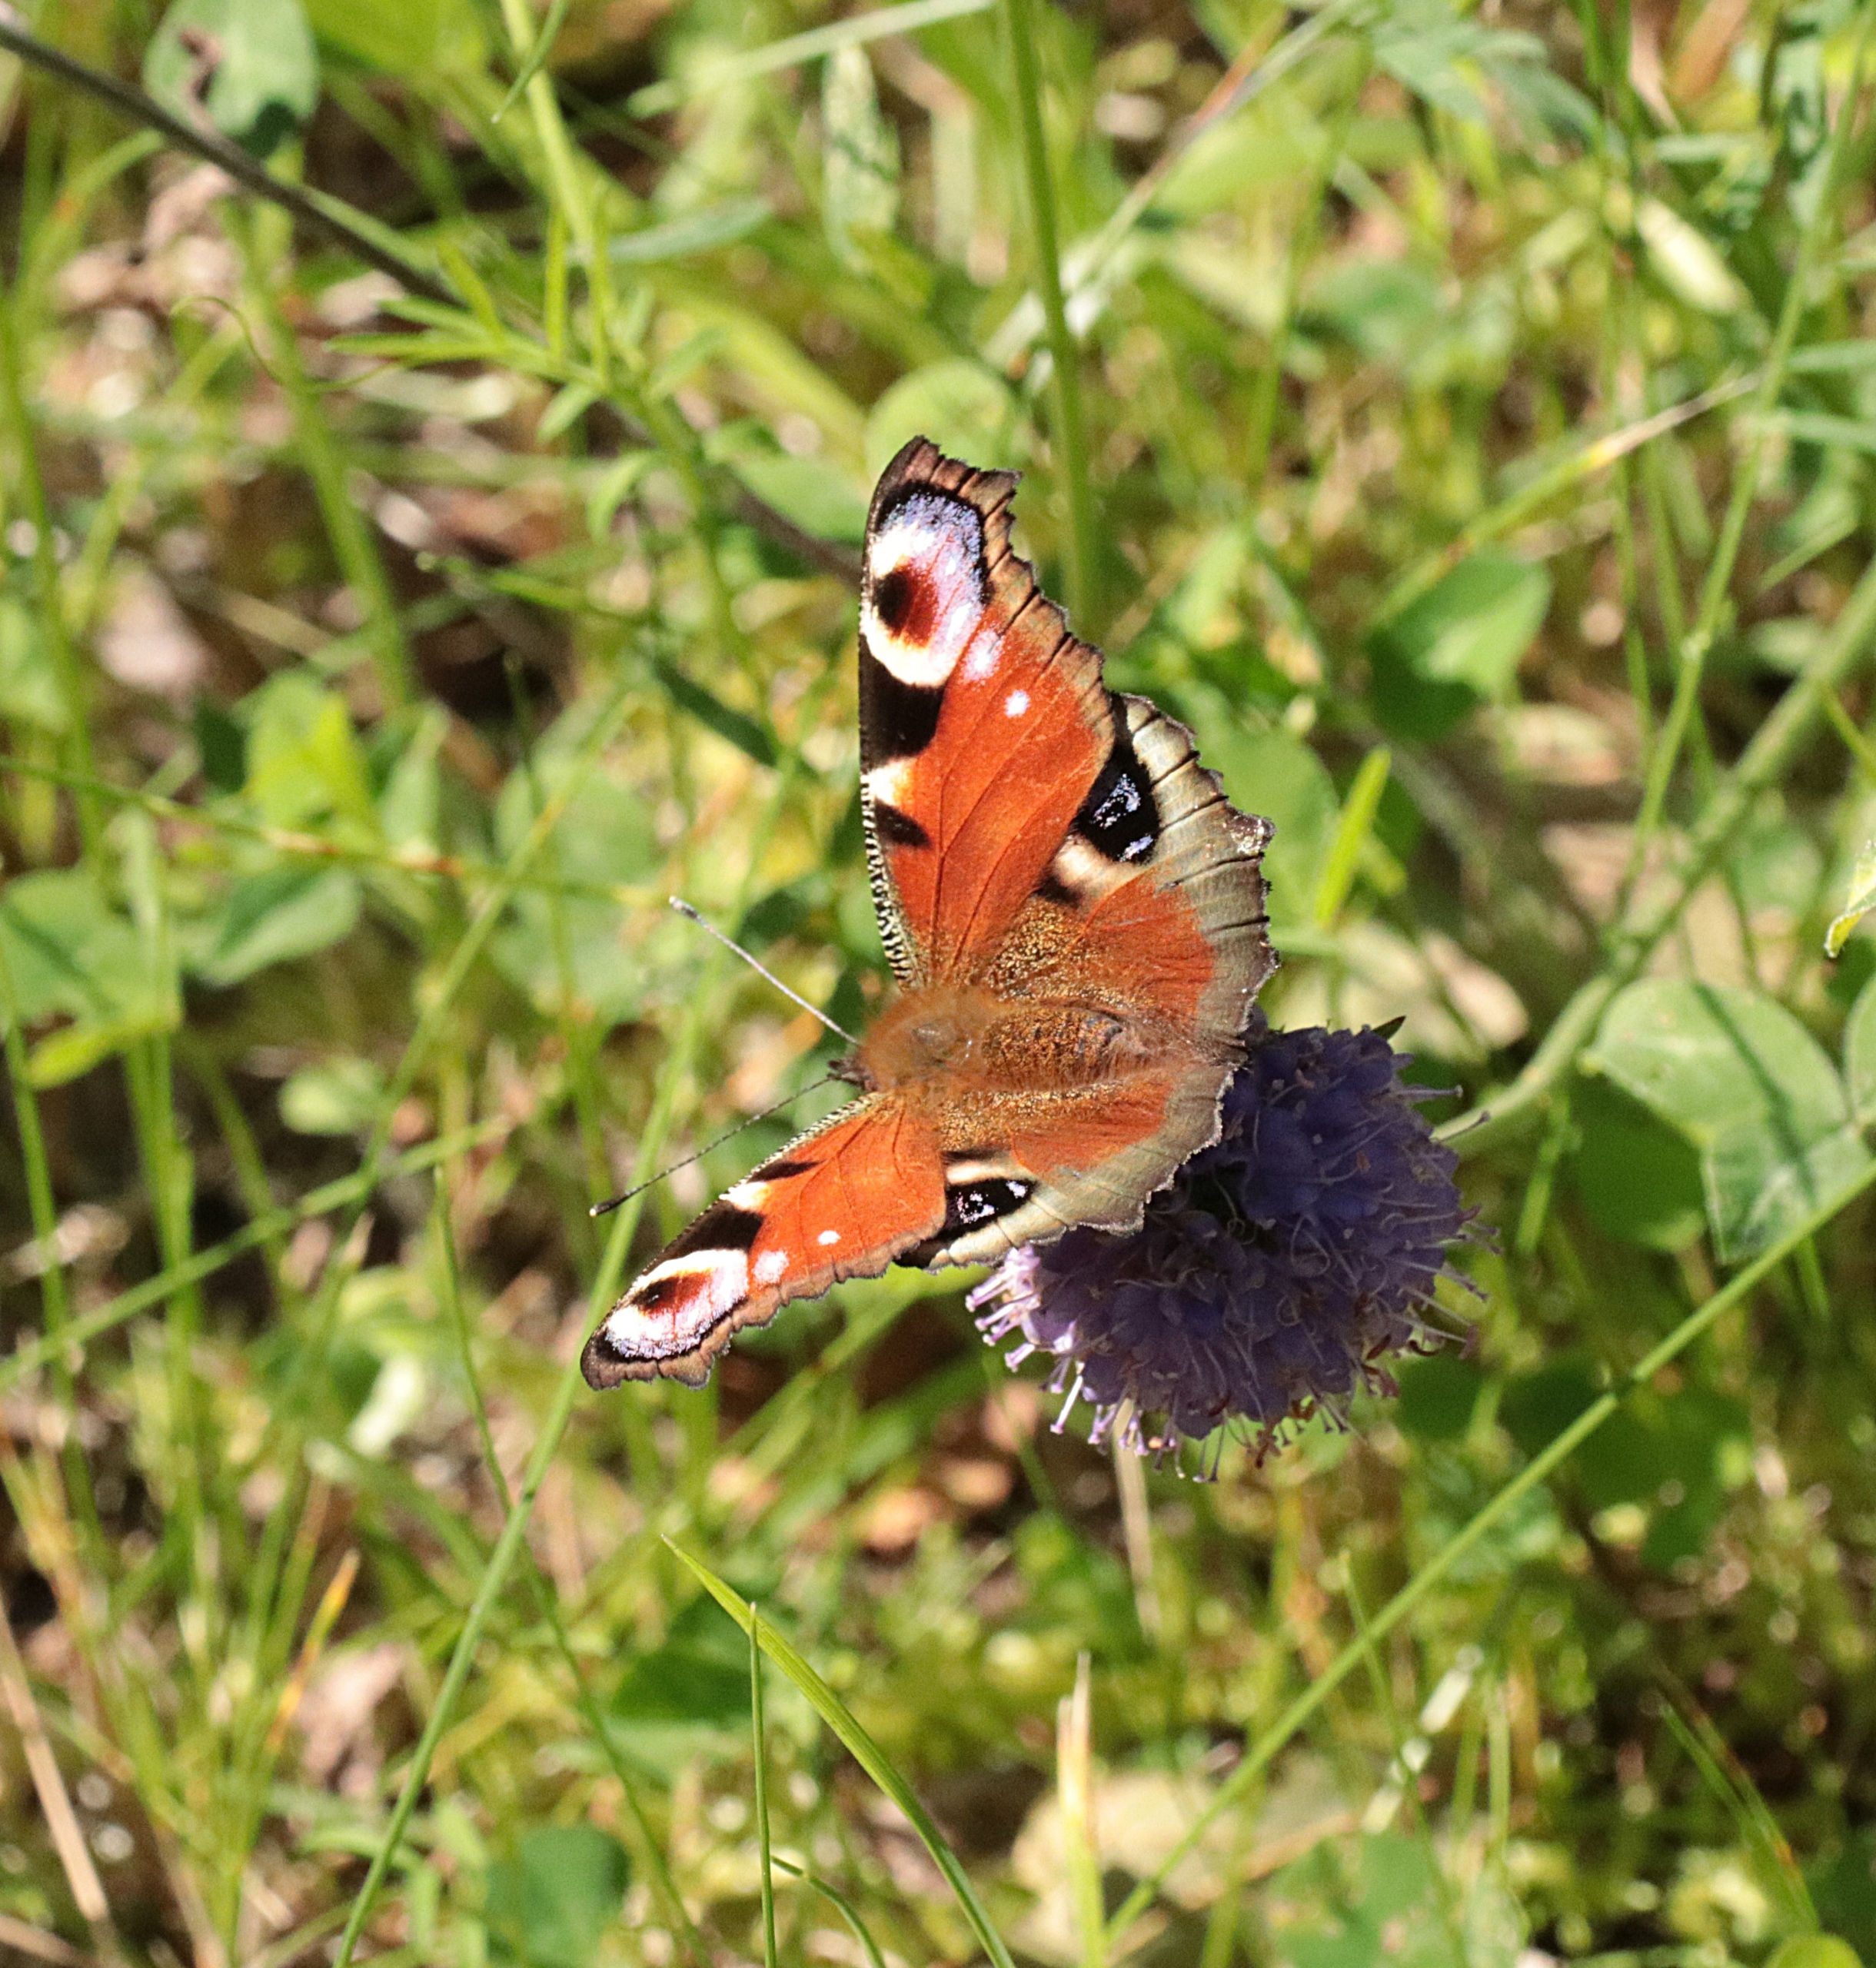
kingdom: Animalia
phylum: Arthropoda
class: Insecta
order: Lepidoptera
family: Nymphalidae
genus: Aglais
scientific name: Aglais io
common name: Dagpåfugleøje
